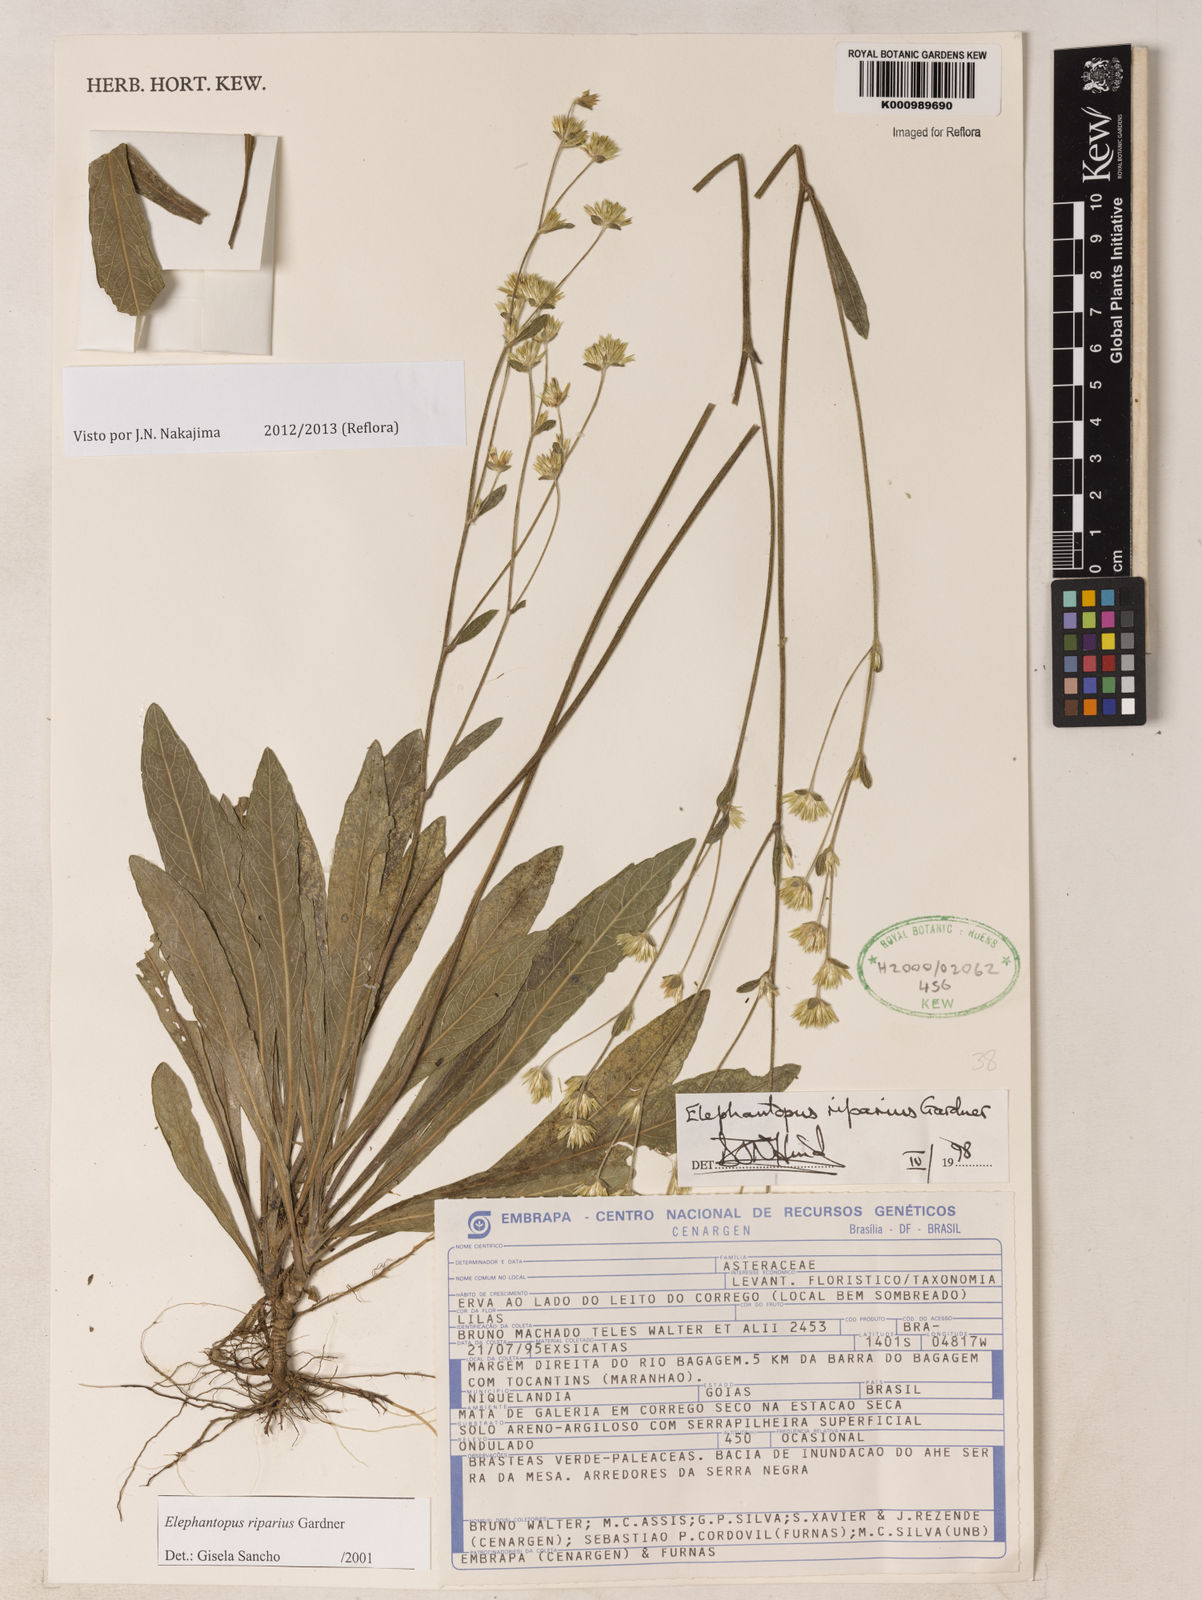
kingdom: Plantae
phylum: Tracheophyta
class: Magnoliopsida
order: Asterales
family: Asteraceae
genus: Elephantopus
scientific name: Elephantopus riparius
